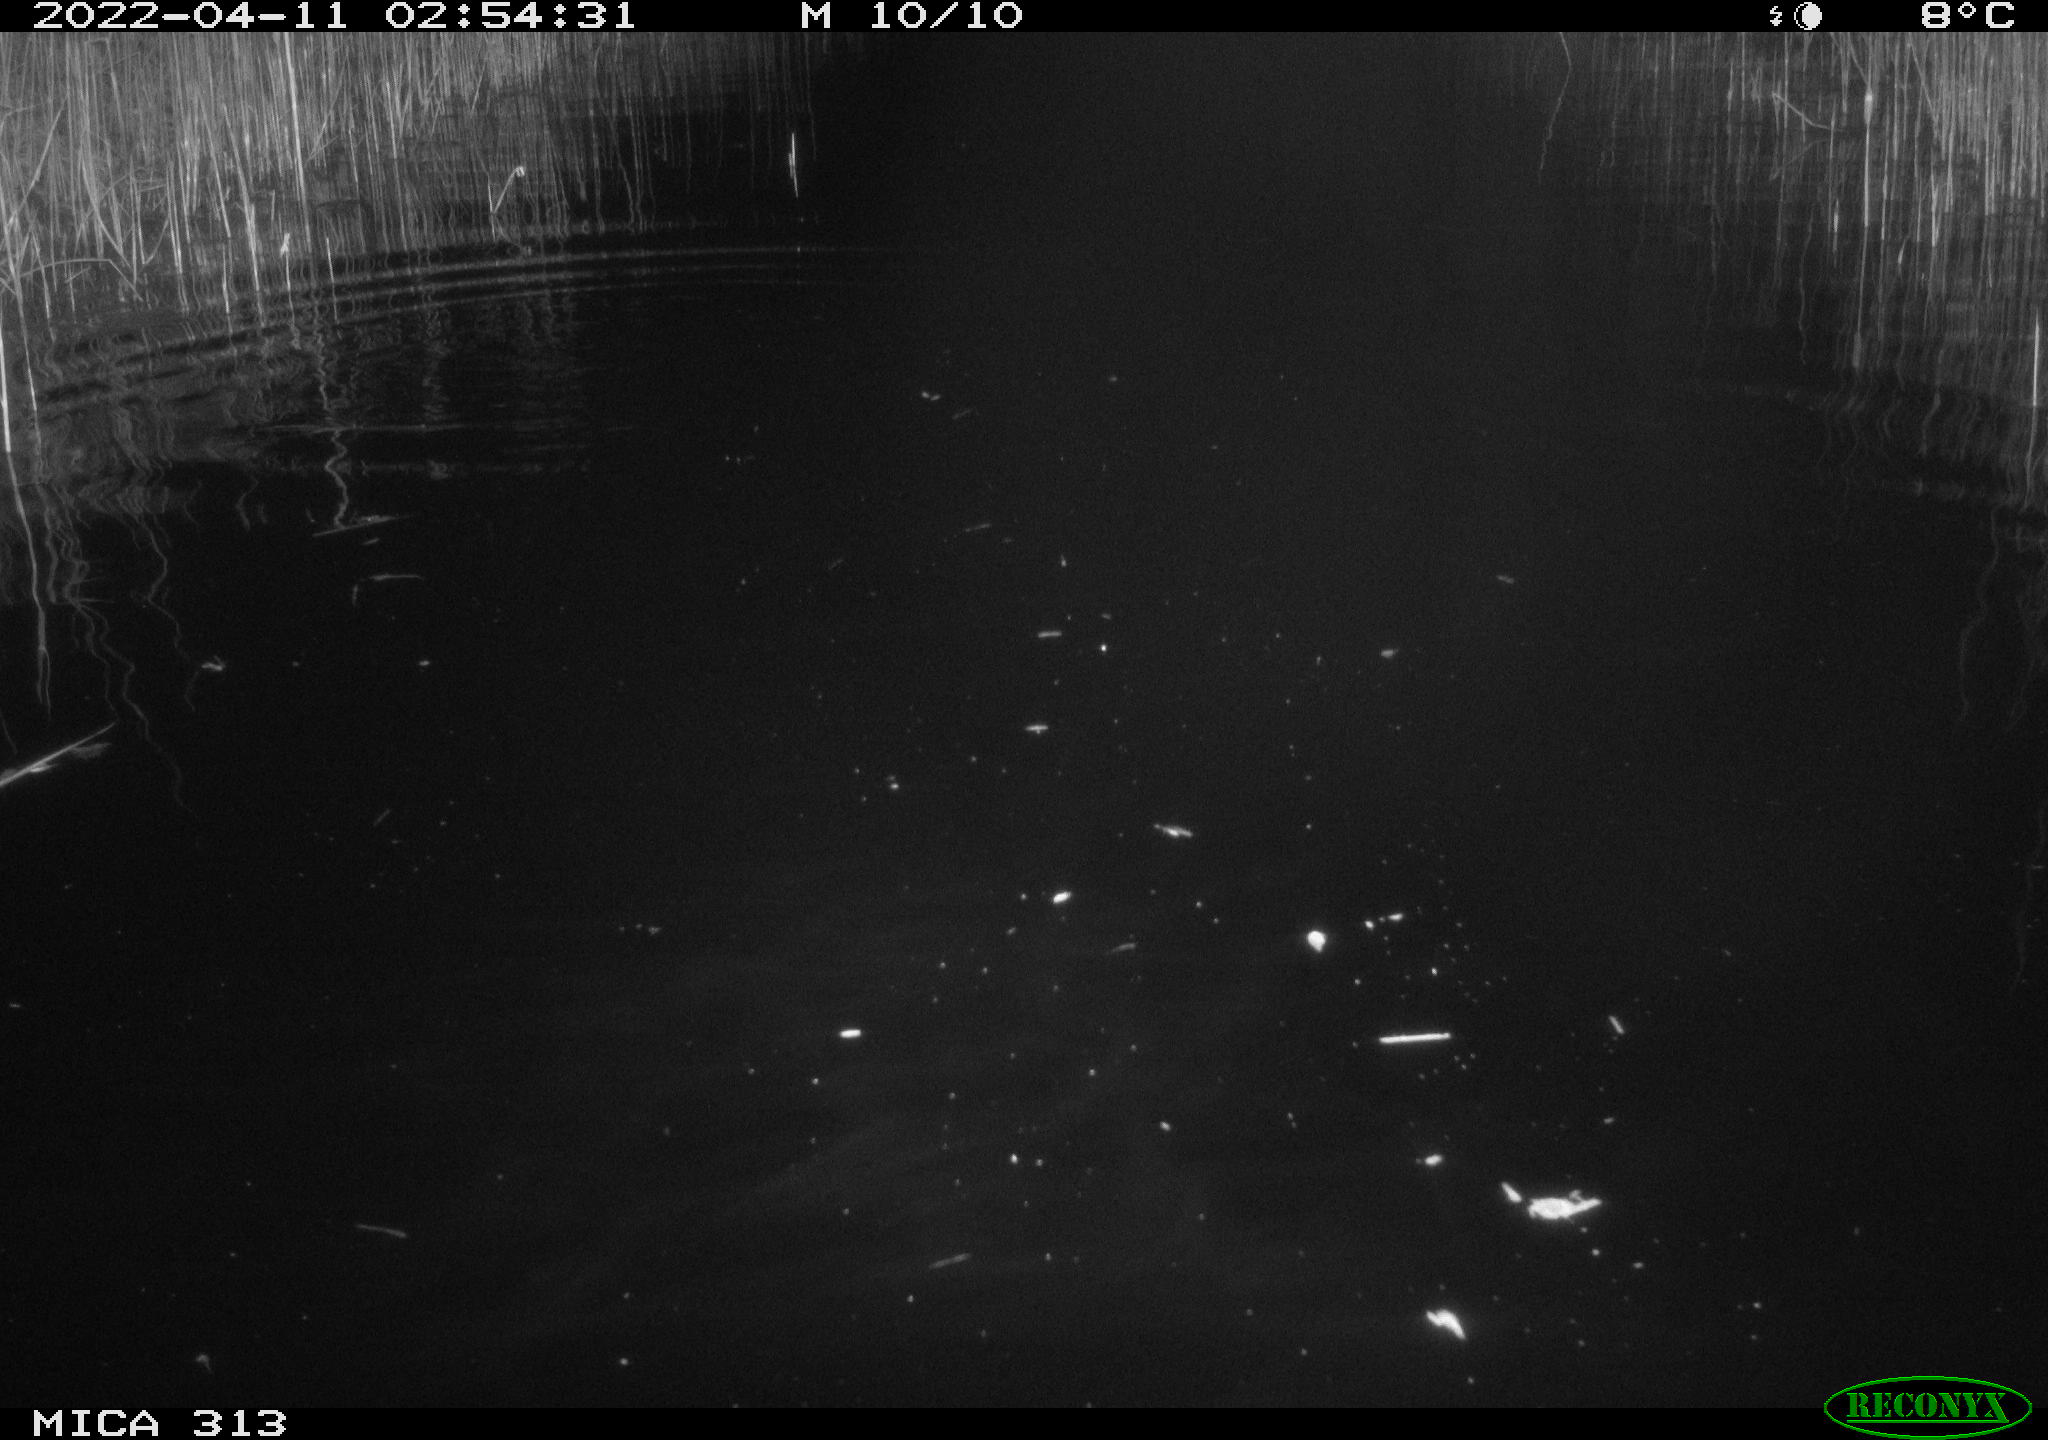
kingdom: Animalia
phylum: Chordata
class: Mammalia
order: Rodentia
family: Cricetidae
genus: Ondatra
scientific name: Ondatra zibethicus
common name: Muskrat
